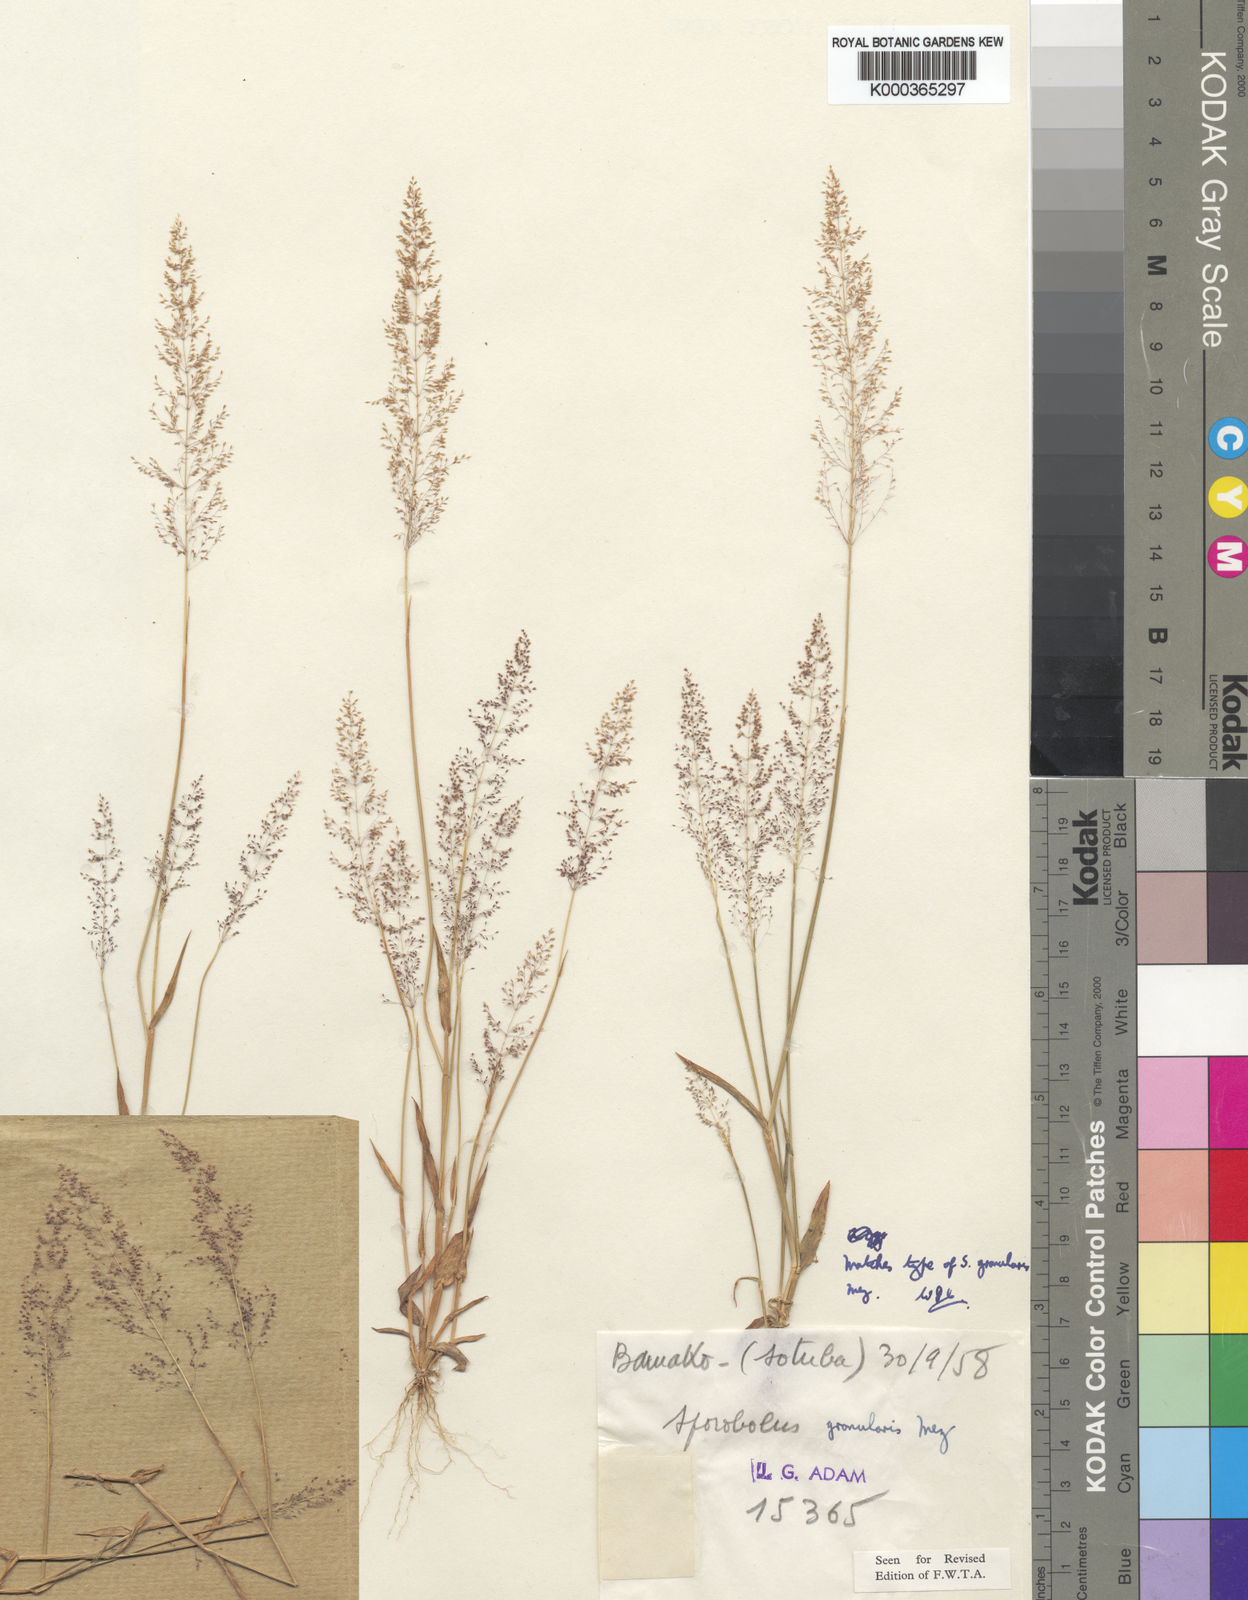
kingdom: Plantae
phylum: Tracheophyta
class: Liliopsida
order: Poales
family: Poaceae
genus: Sporobolus
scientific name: Sporobolus stolzii
